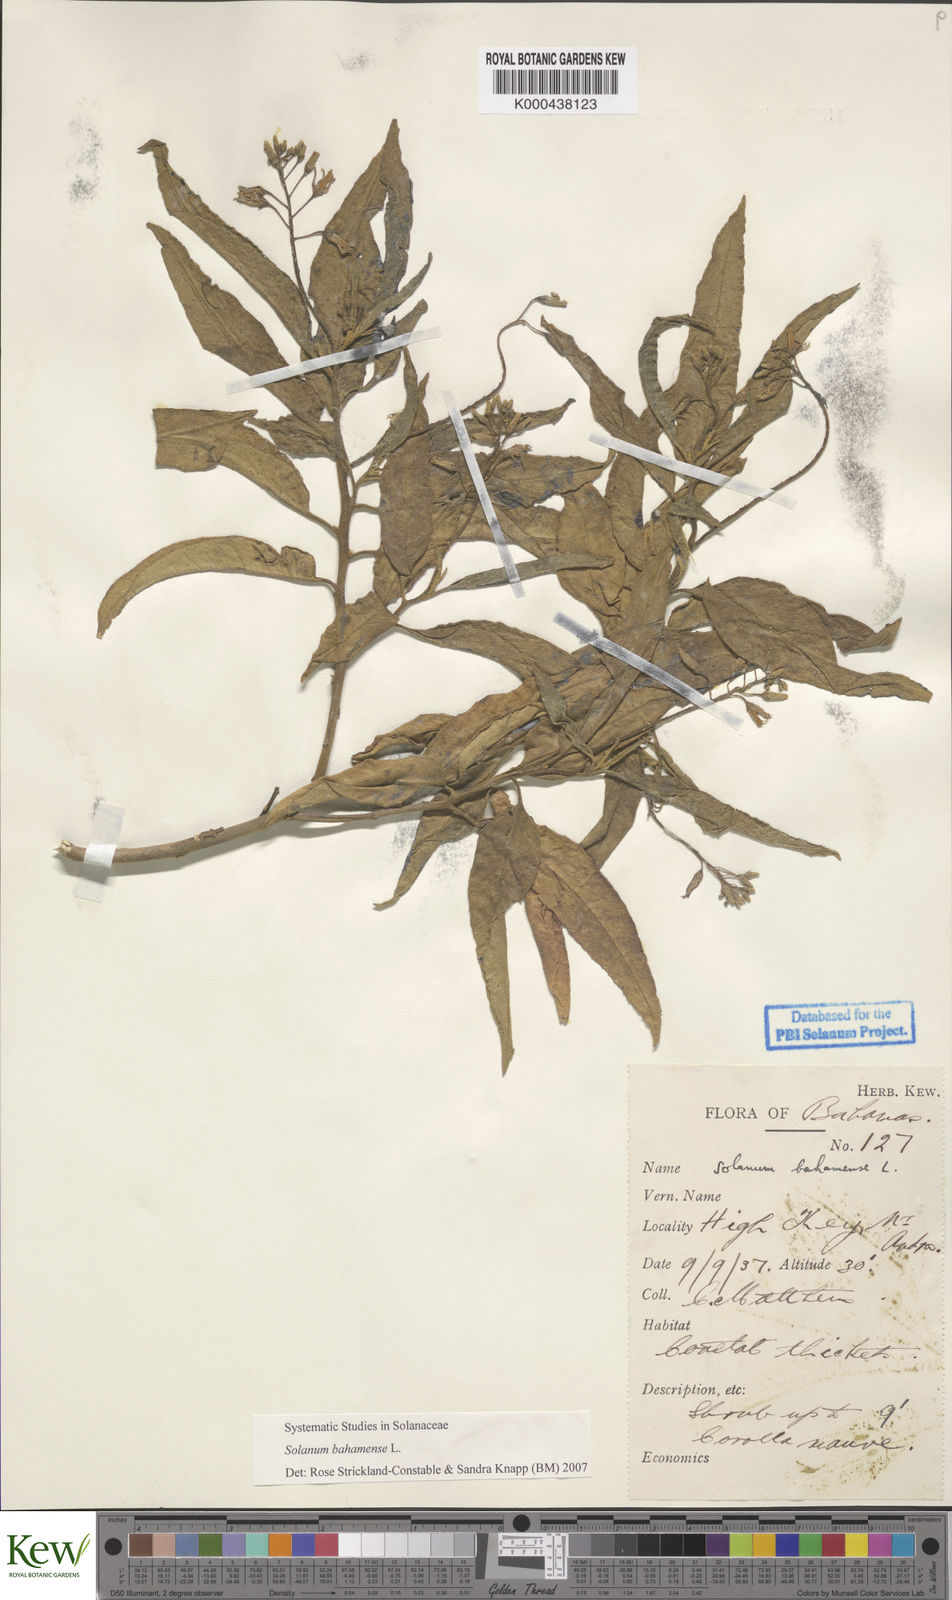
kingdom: Plantae
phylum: Tracheophyta
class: Magnoliopsida
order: Solanales
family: Solanaceae
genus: Solanum
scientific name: Solanum bahamense
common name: Canker-berry
